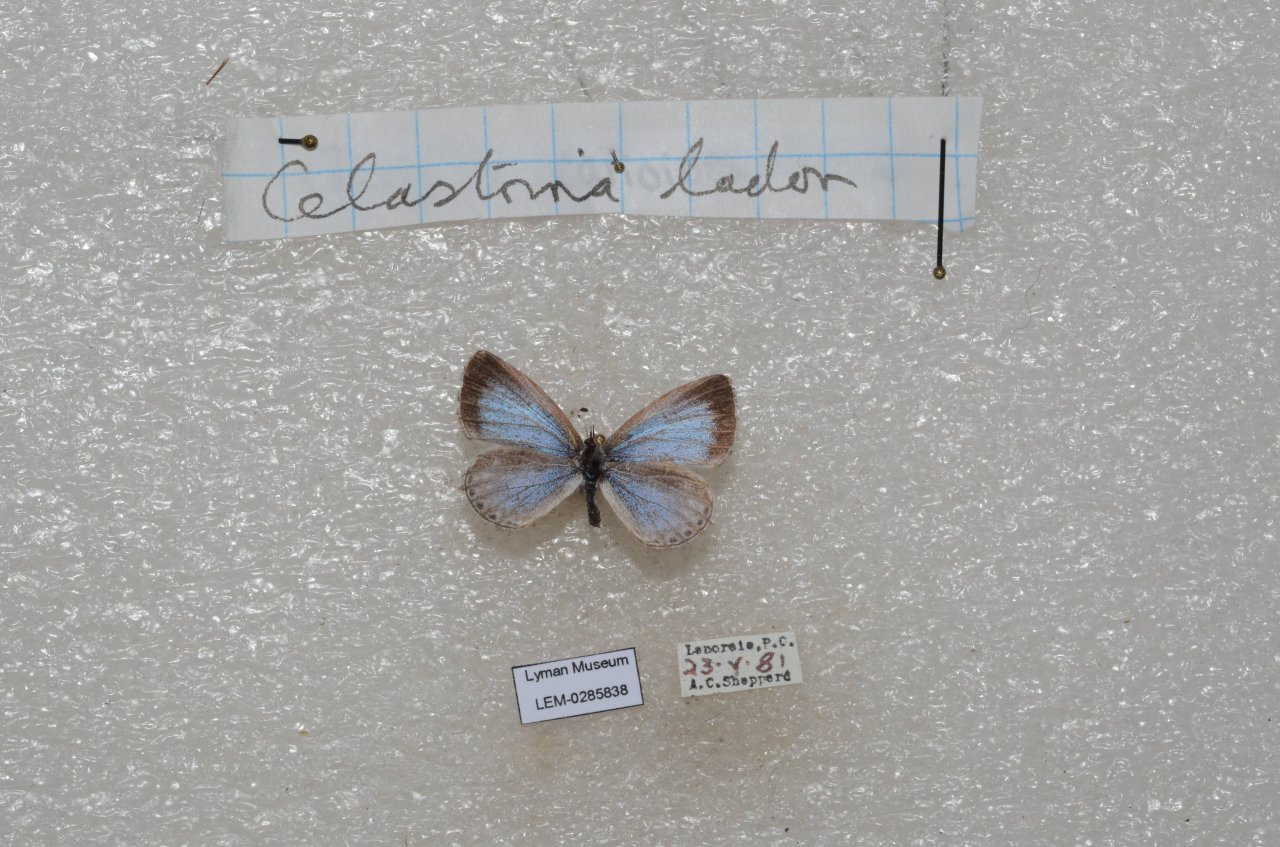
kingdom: Animalia
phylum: Arthropoda
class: Insecta
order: Lepidoptera
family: Lycaenidae
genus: Celastrina
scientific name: Celastrina lucia
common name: Northern Spring Azure
